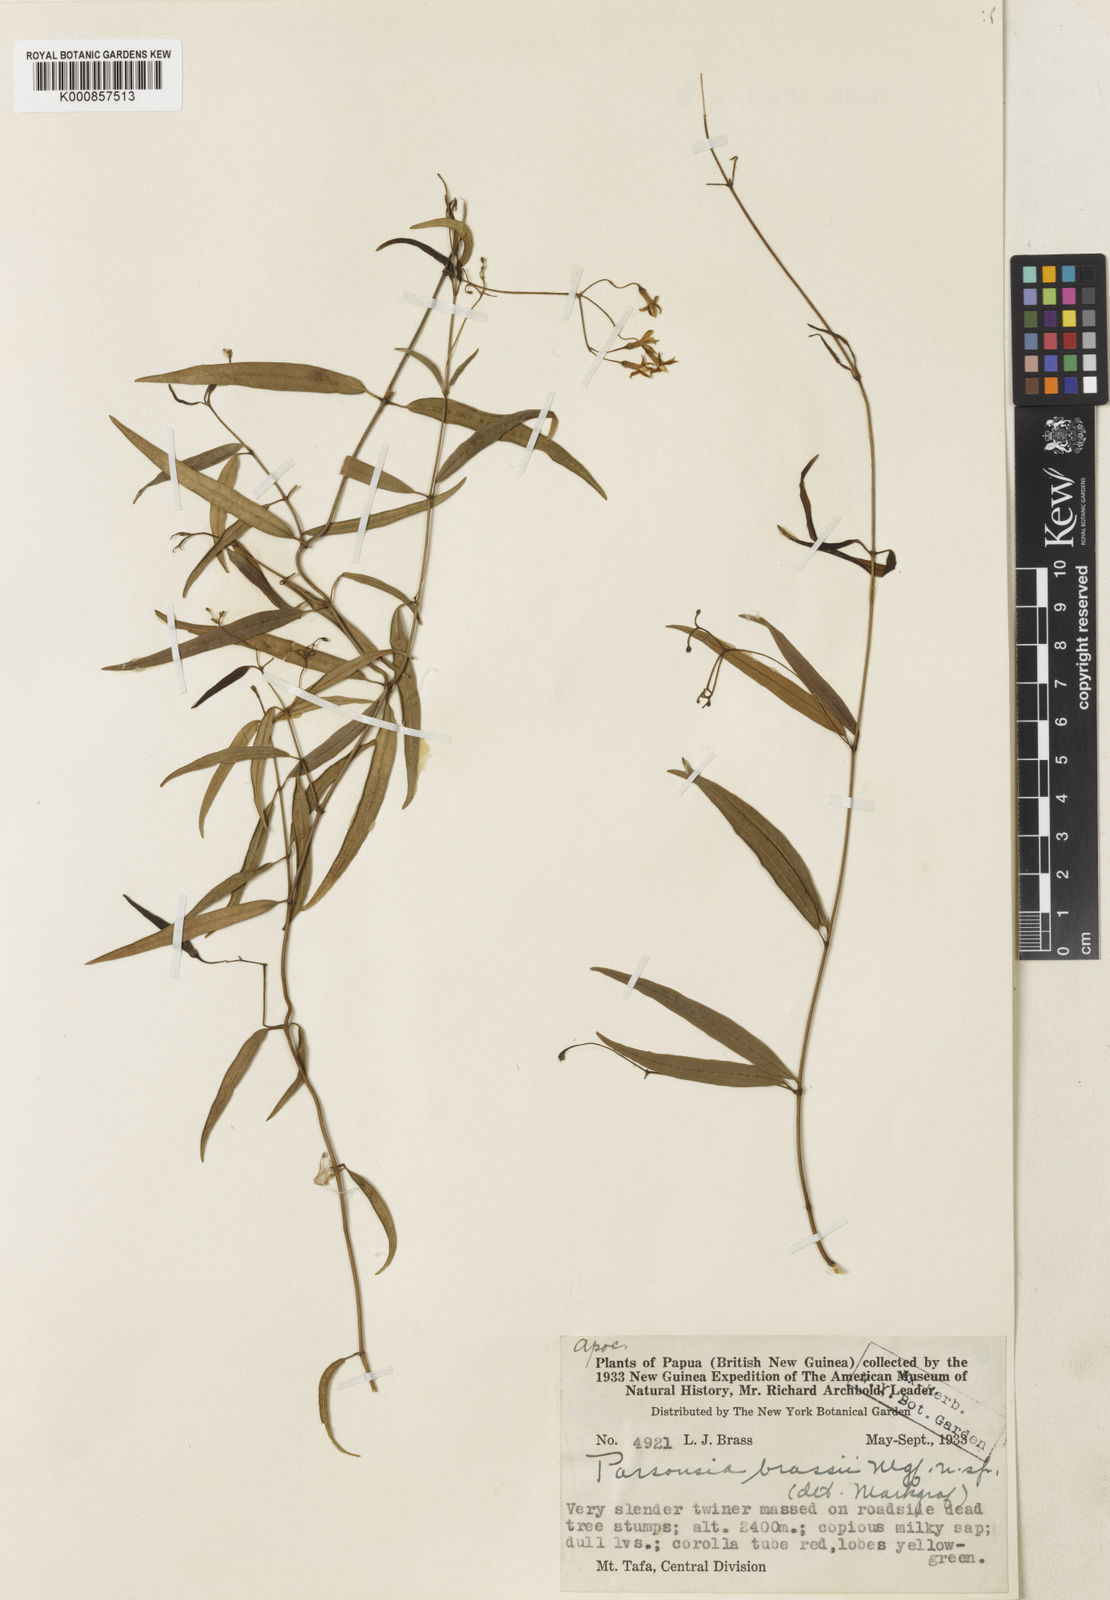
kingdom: Plantae
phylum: Tracheophyta
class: Magnoliopsida
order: Gentianales
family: Apocynaceae
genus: Parsonsia
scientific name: Parsonsia sanguinea
